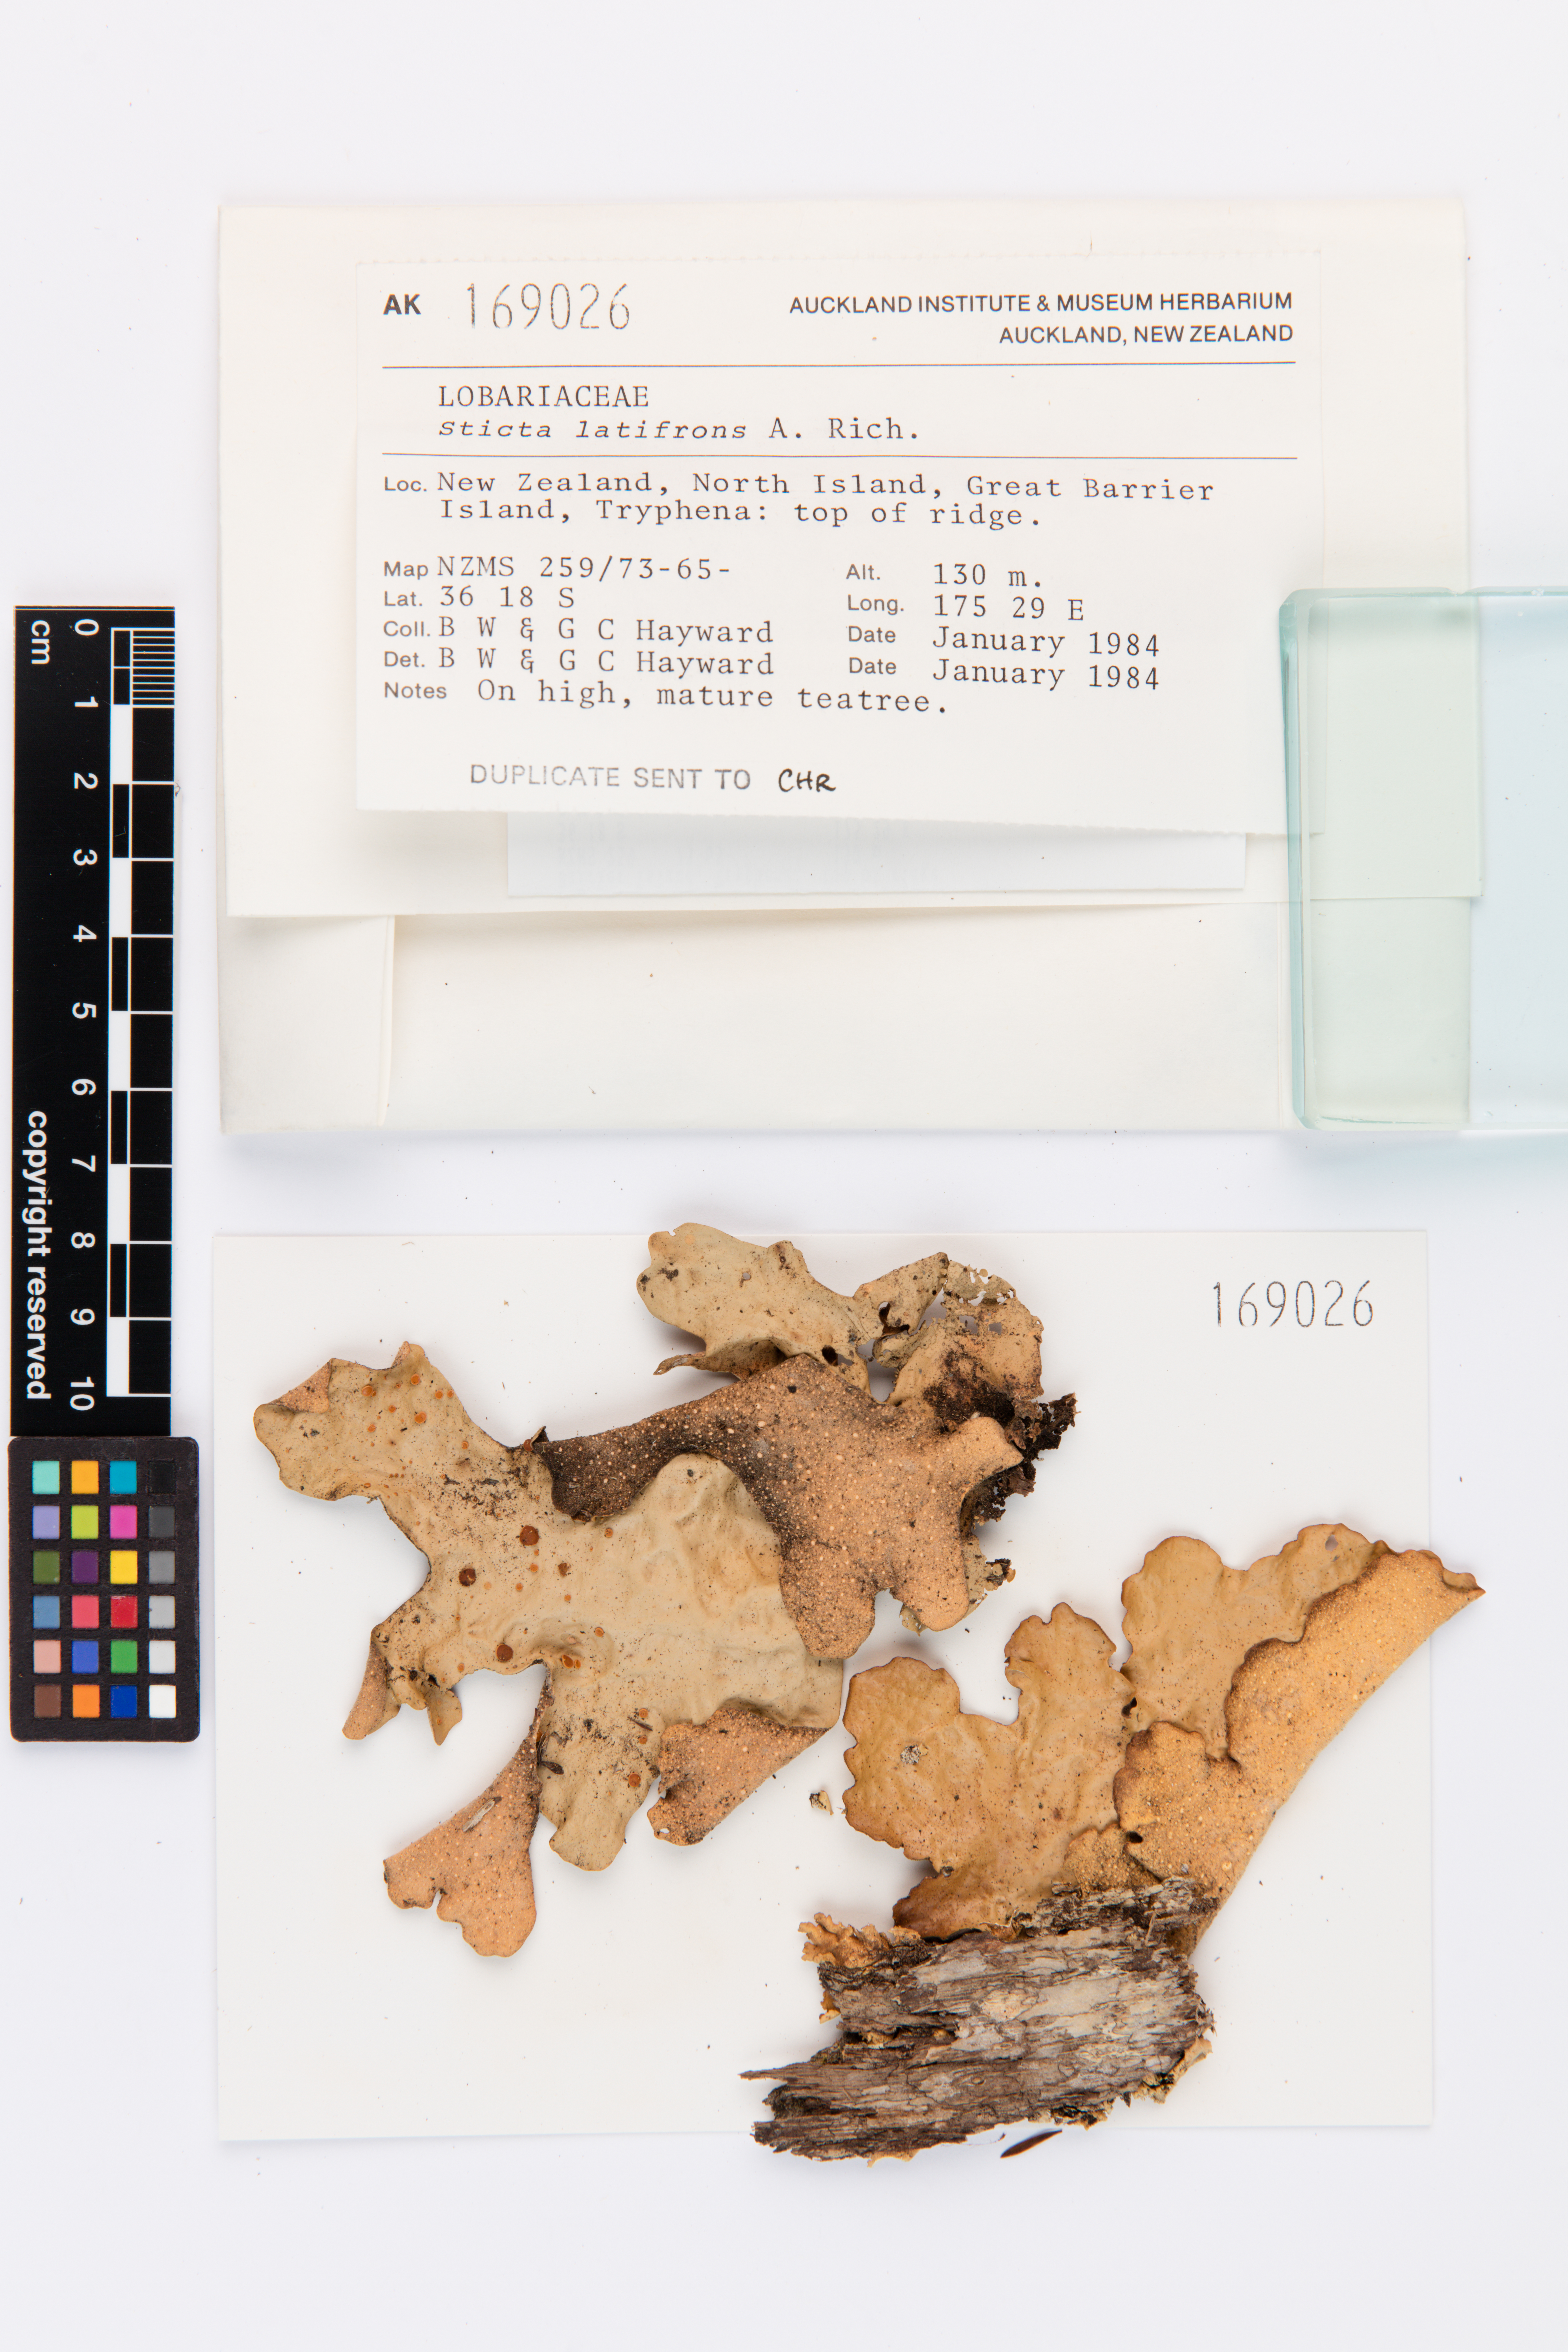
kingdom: Fungi
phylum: Ascomycota
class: Lecanoromycetes
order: Peltigerales
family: Lobariaceae
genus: Sticta
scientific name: Sticta latifrons
